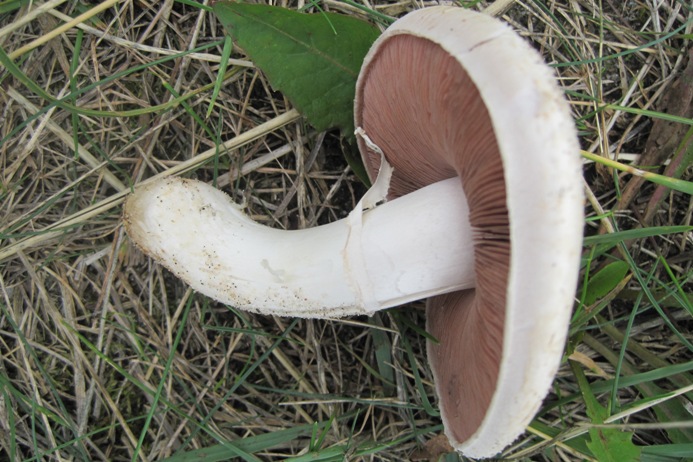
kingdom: Fungi
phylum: Basidiomycota
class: Agaricomycetes
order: Agaricales
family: Agaricaceae
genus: Agaricus
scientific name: Agaricus campestris
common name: mark-champignon
